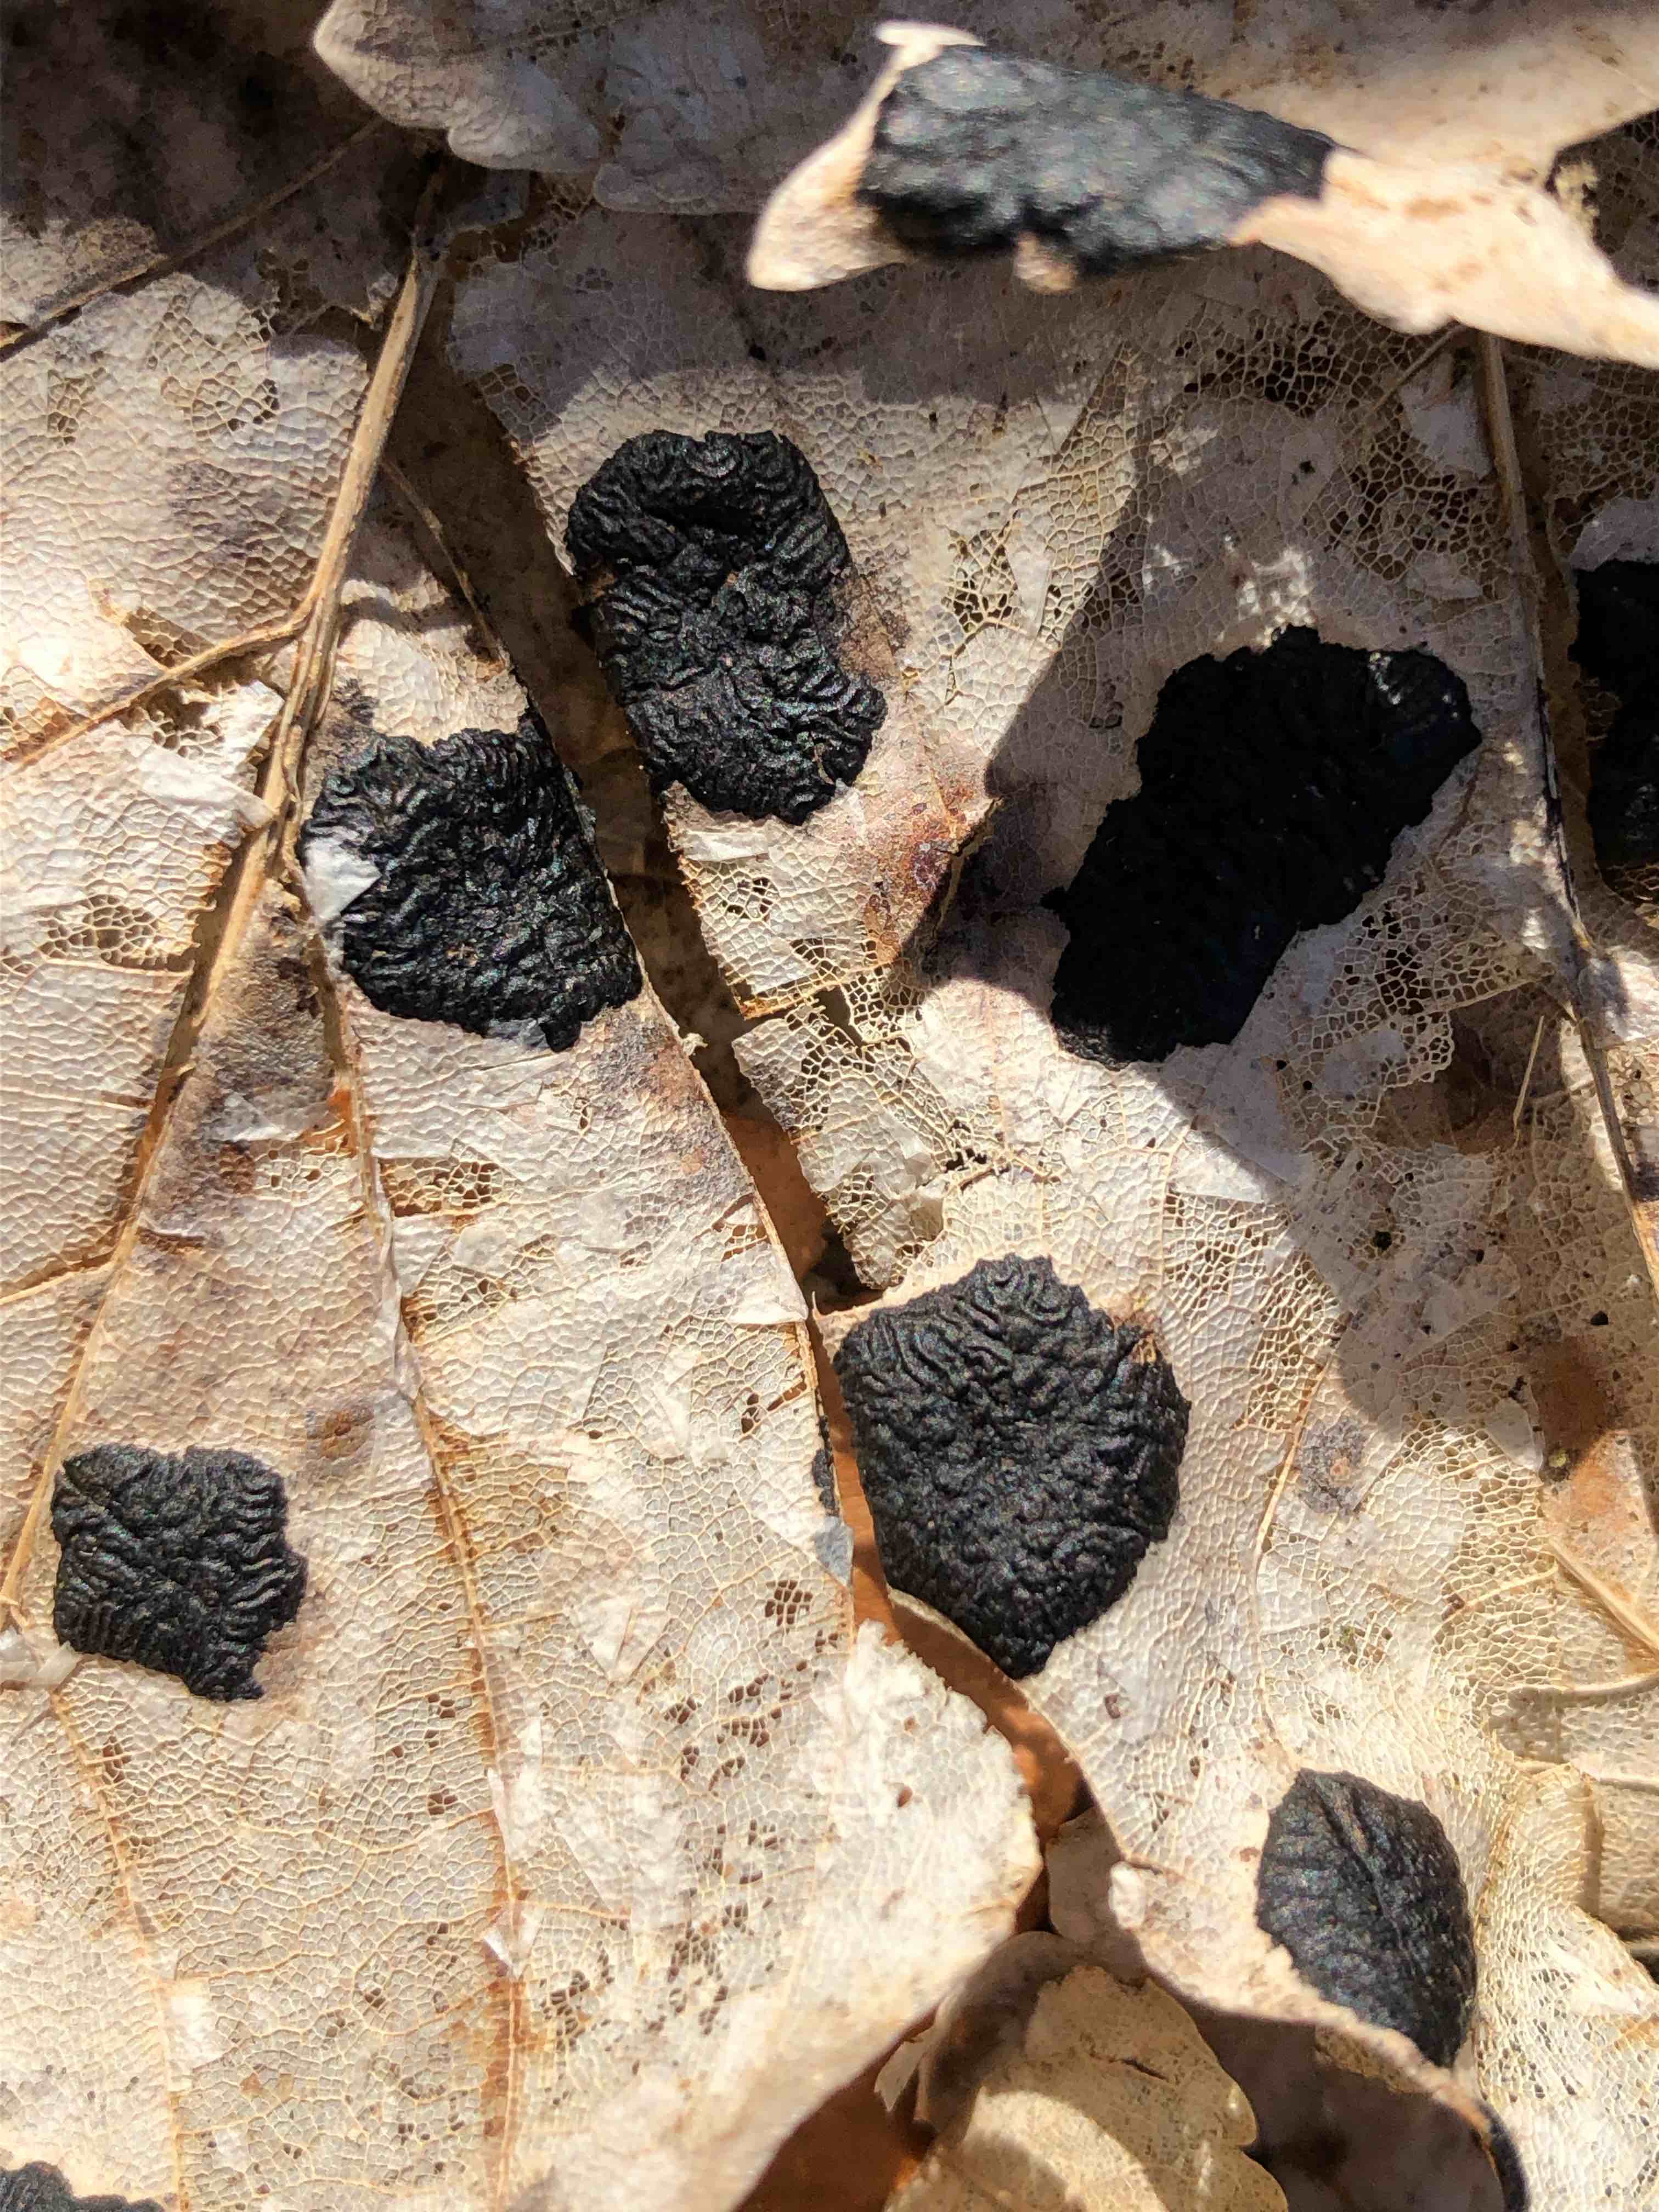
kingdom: Fungi
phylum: Ascomycota
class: Leotiomycetes
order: Rhytismatales
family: Rhytismataceae
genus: Rhytisma
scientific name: Rhytisma acerinum
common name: ahorn-rynkeplet
